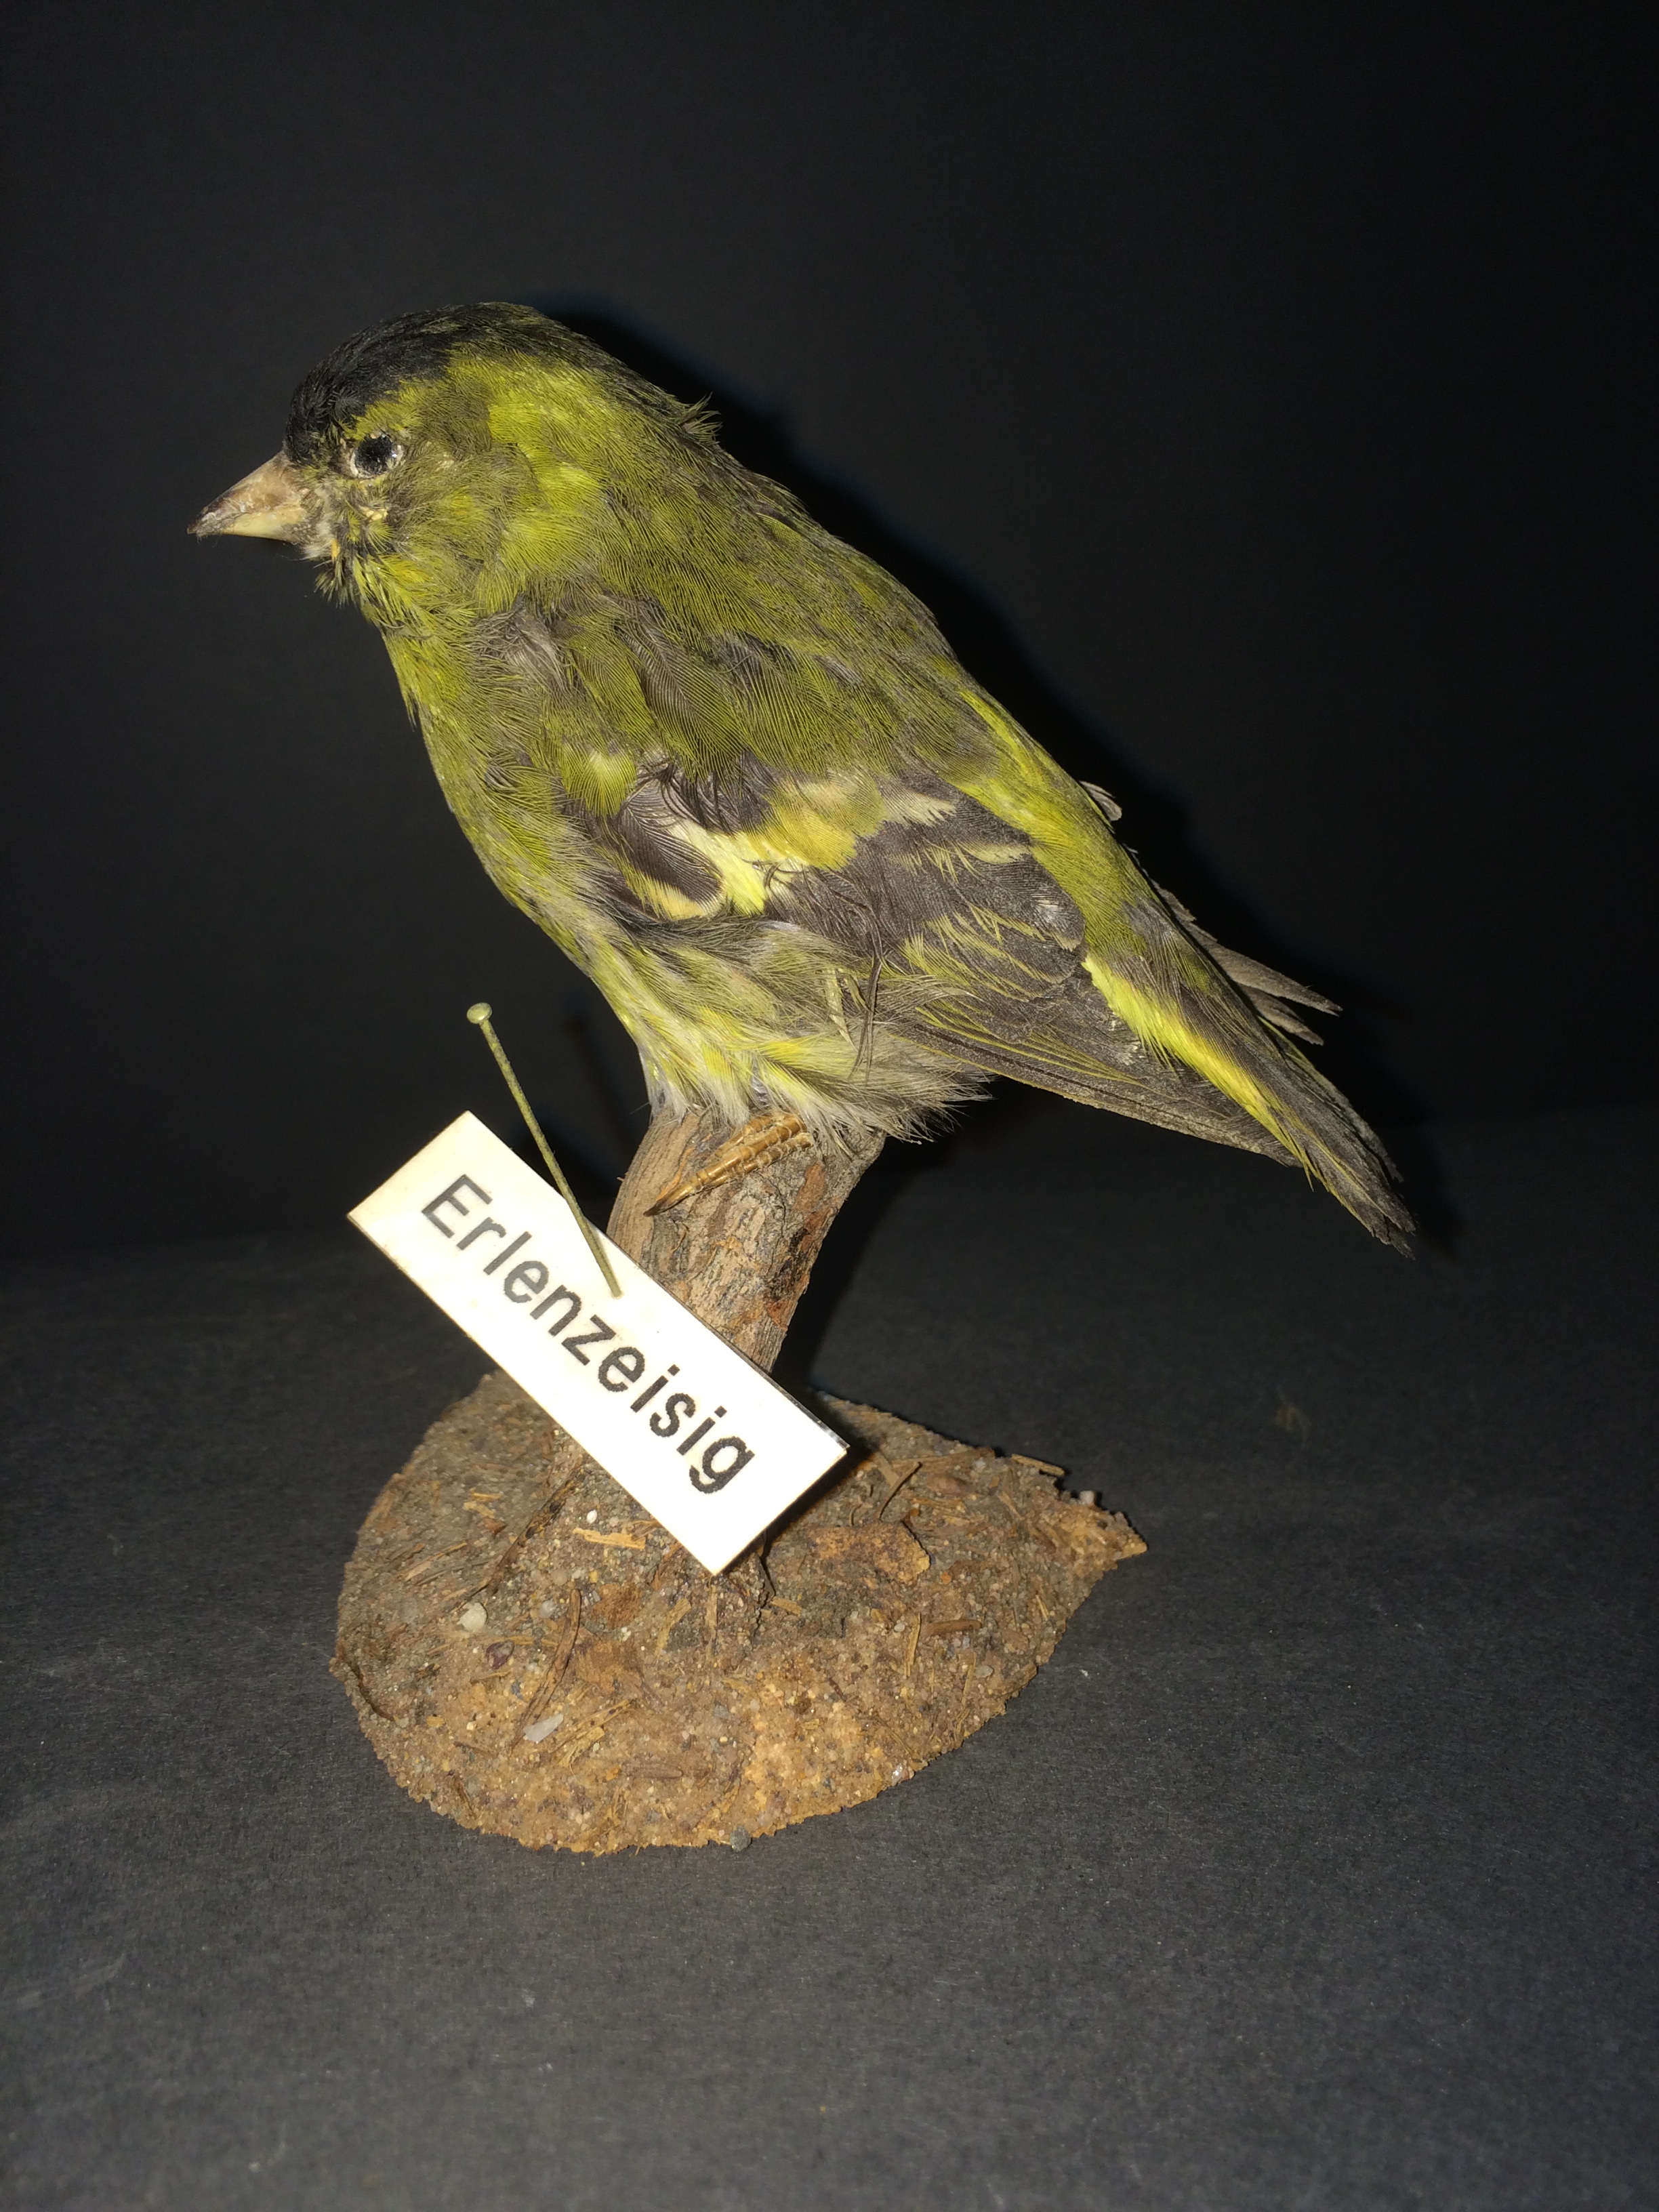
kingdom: Animalia
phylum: Chordata
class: Aves
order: Passeriformes
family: Fringillidae
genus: Spinus
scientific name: Spinus spinus
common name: Eurasian siskin
